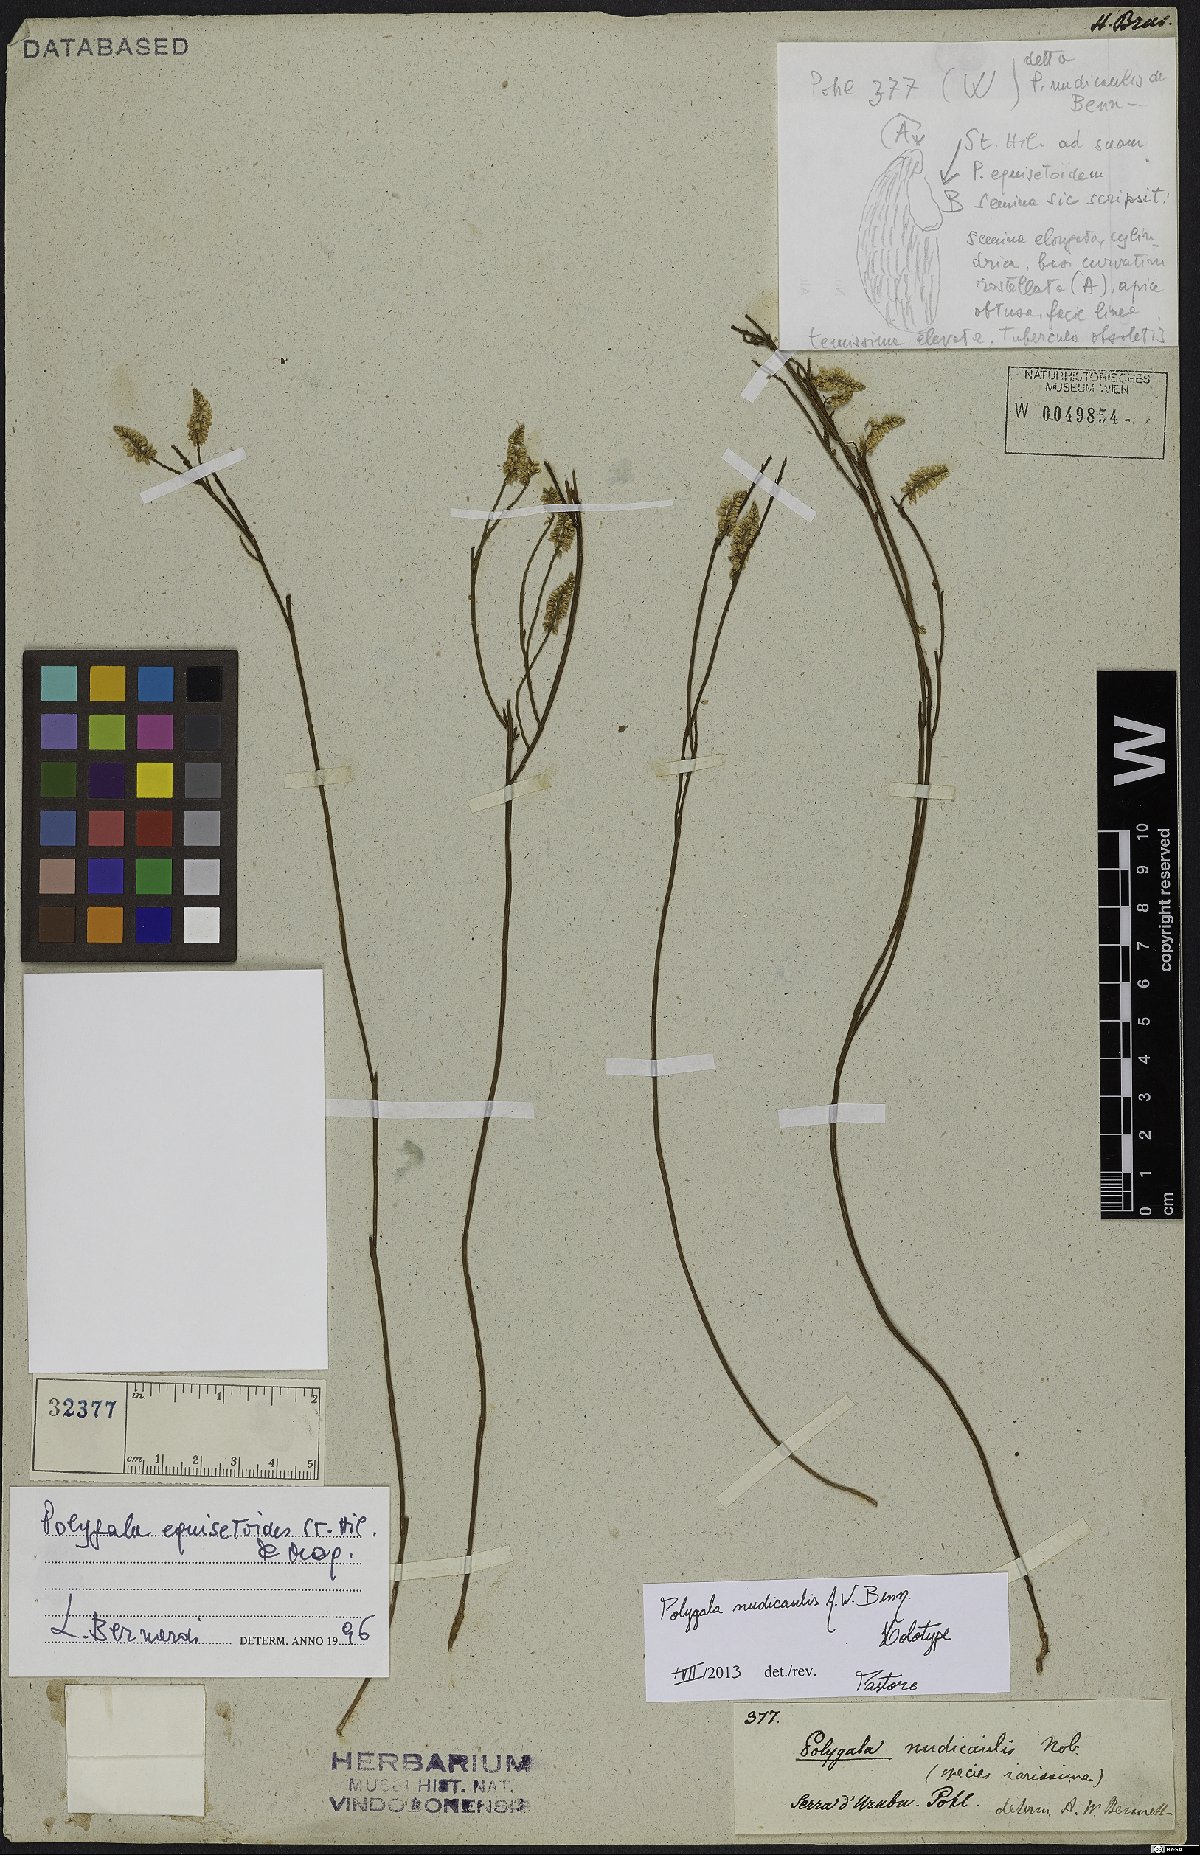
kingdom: Plantae
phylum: Tracheophyta
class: Magnoliopsida
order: Fabales
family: Polygalaceae
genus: Polygala
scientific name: Polygala nudicaulis
